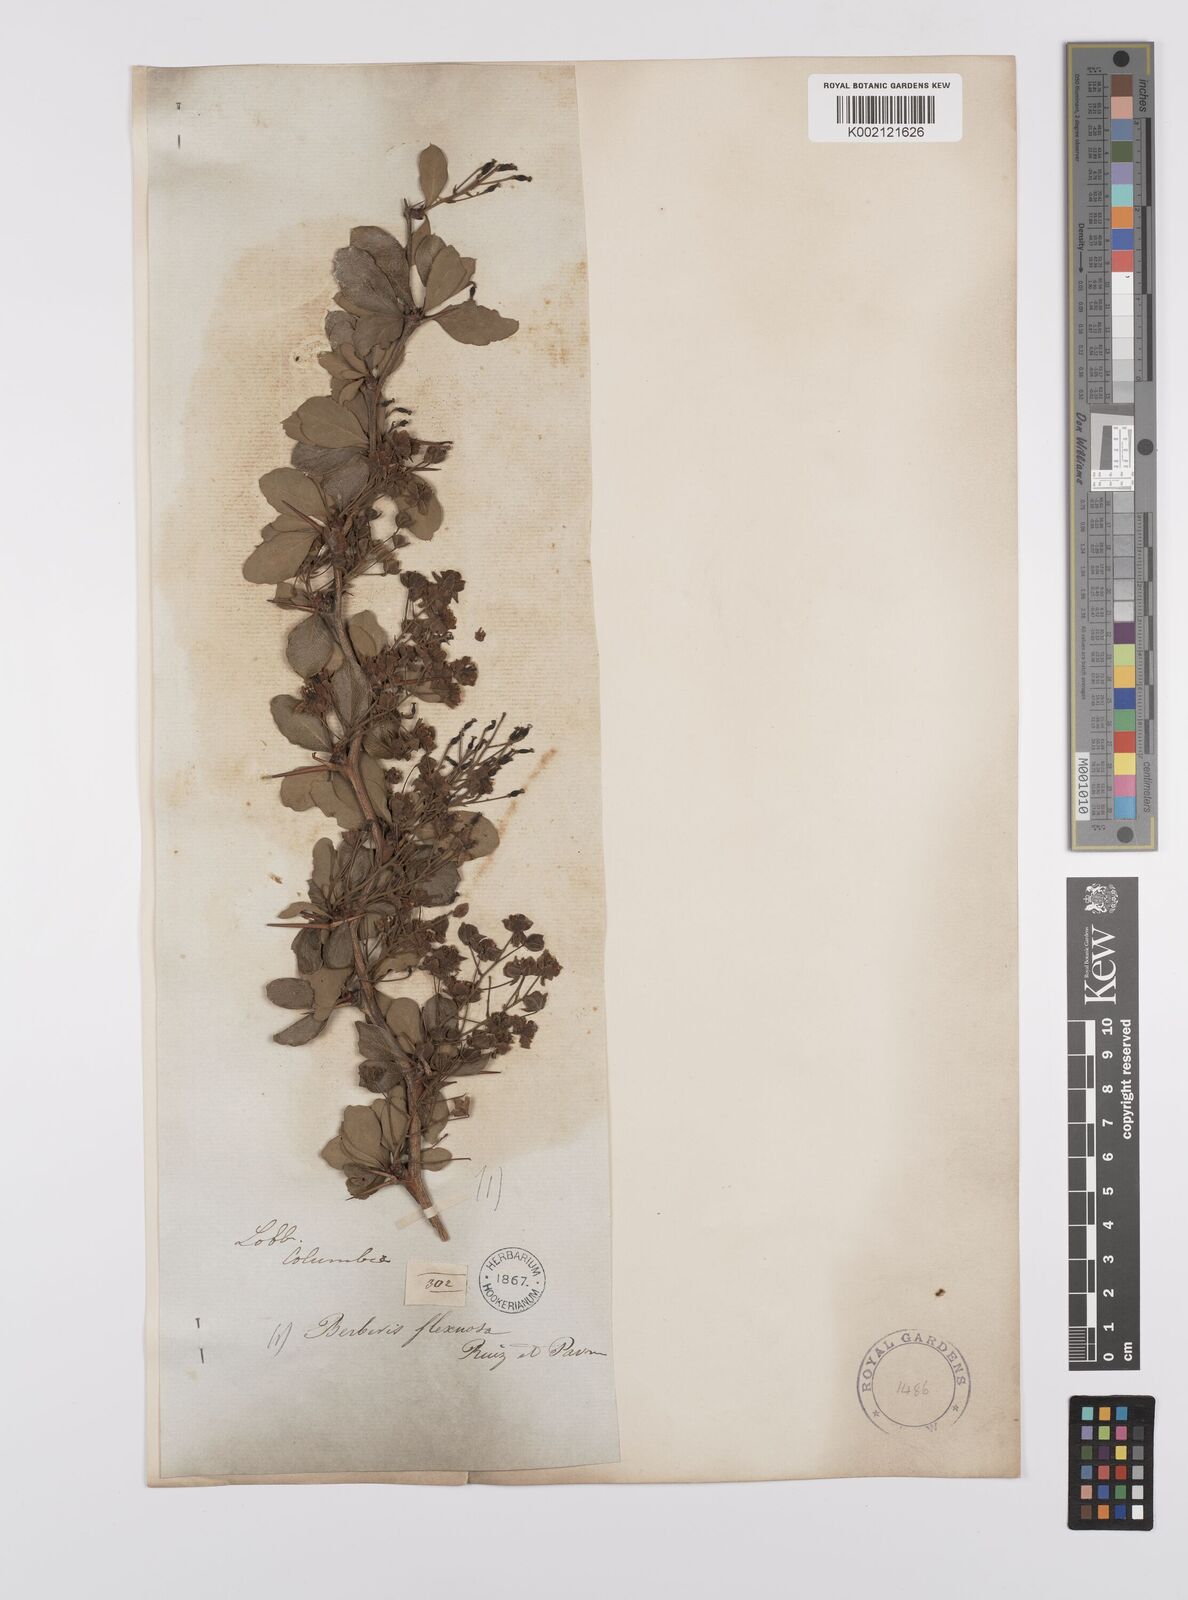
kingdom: Plantae
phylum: Tracheophyta
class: Magnoliopsida
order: Ranunculales
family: Berberidaceae
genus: Berberis
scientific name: Berberis flexuosa
